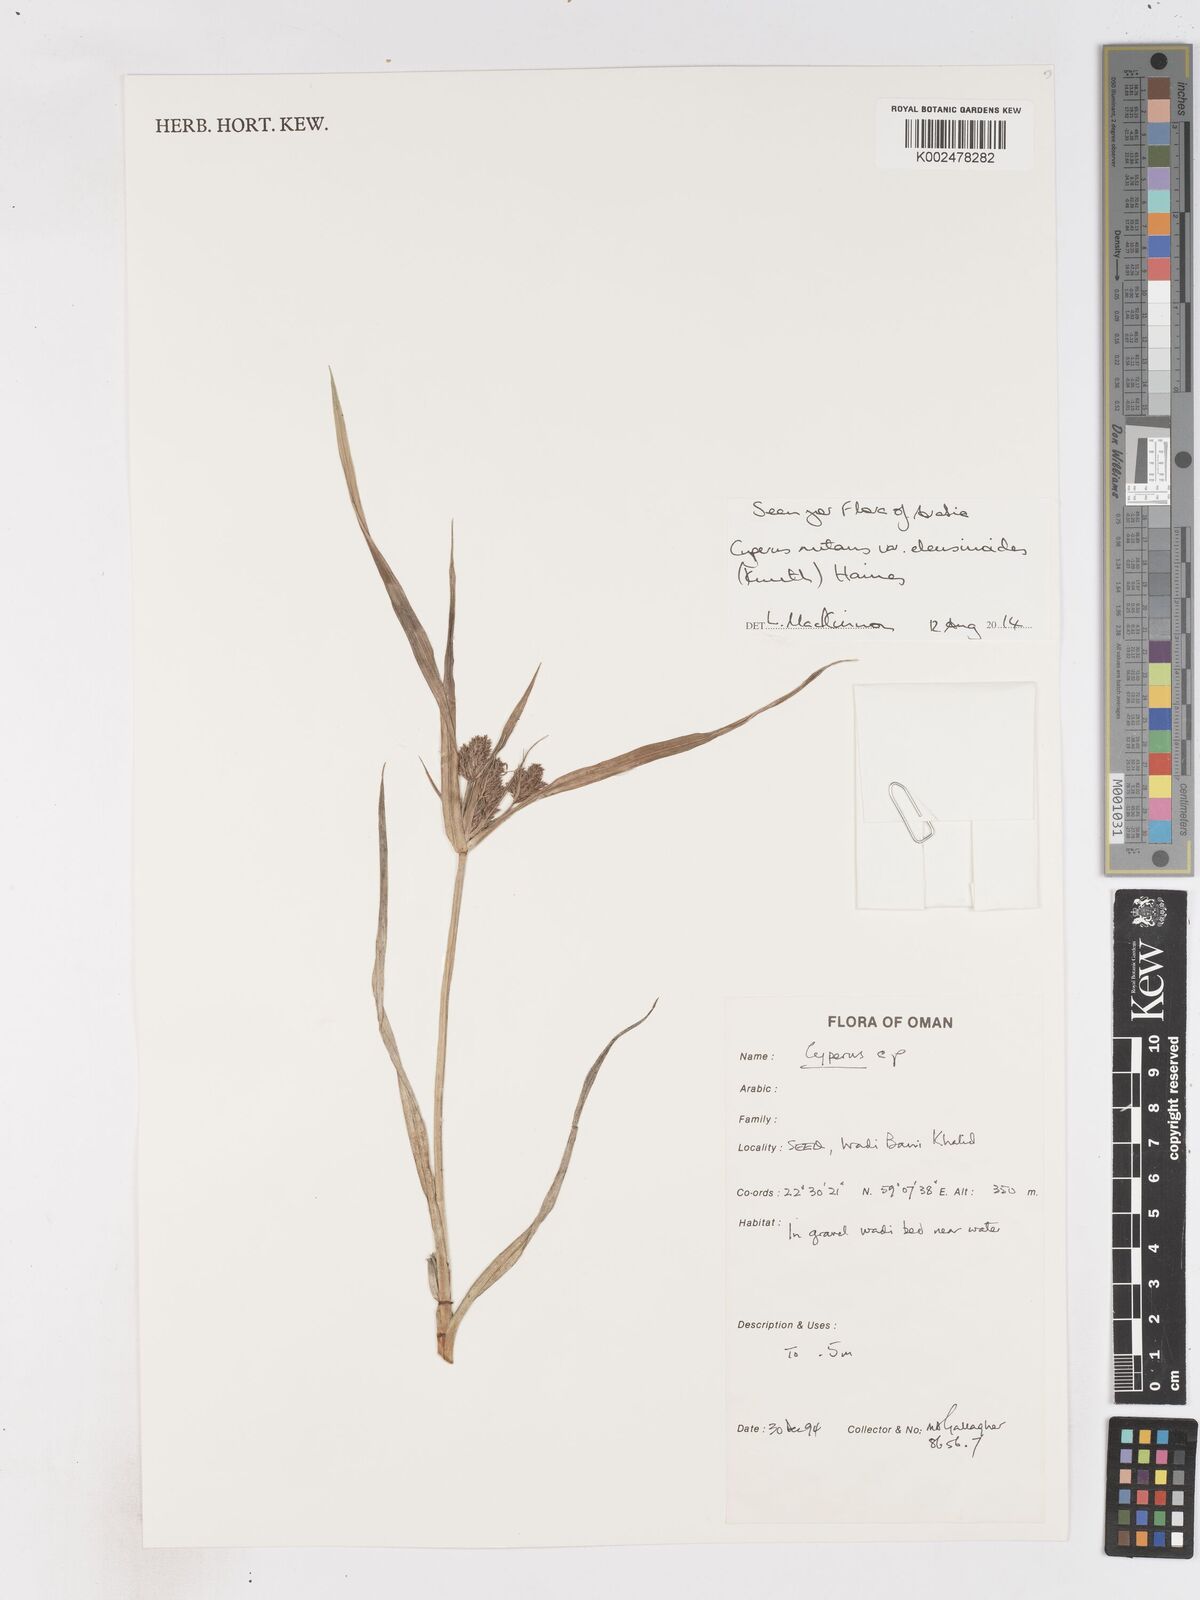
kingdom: Plantae
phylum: Tracheophyta
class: Liliopsida
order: Poales
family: Cyperaceae
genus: Cyperus
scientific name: Cyperus nutans
